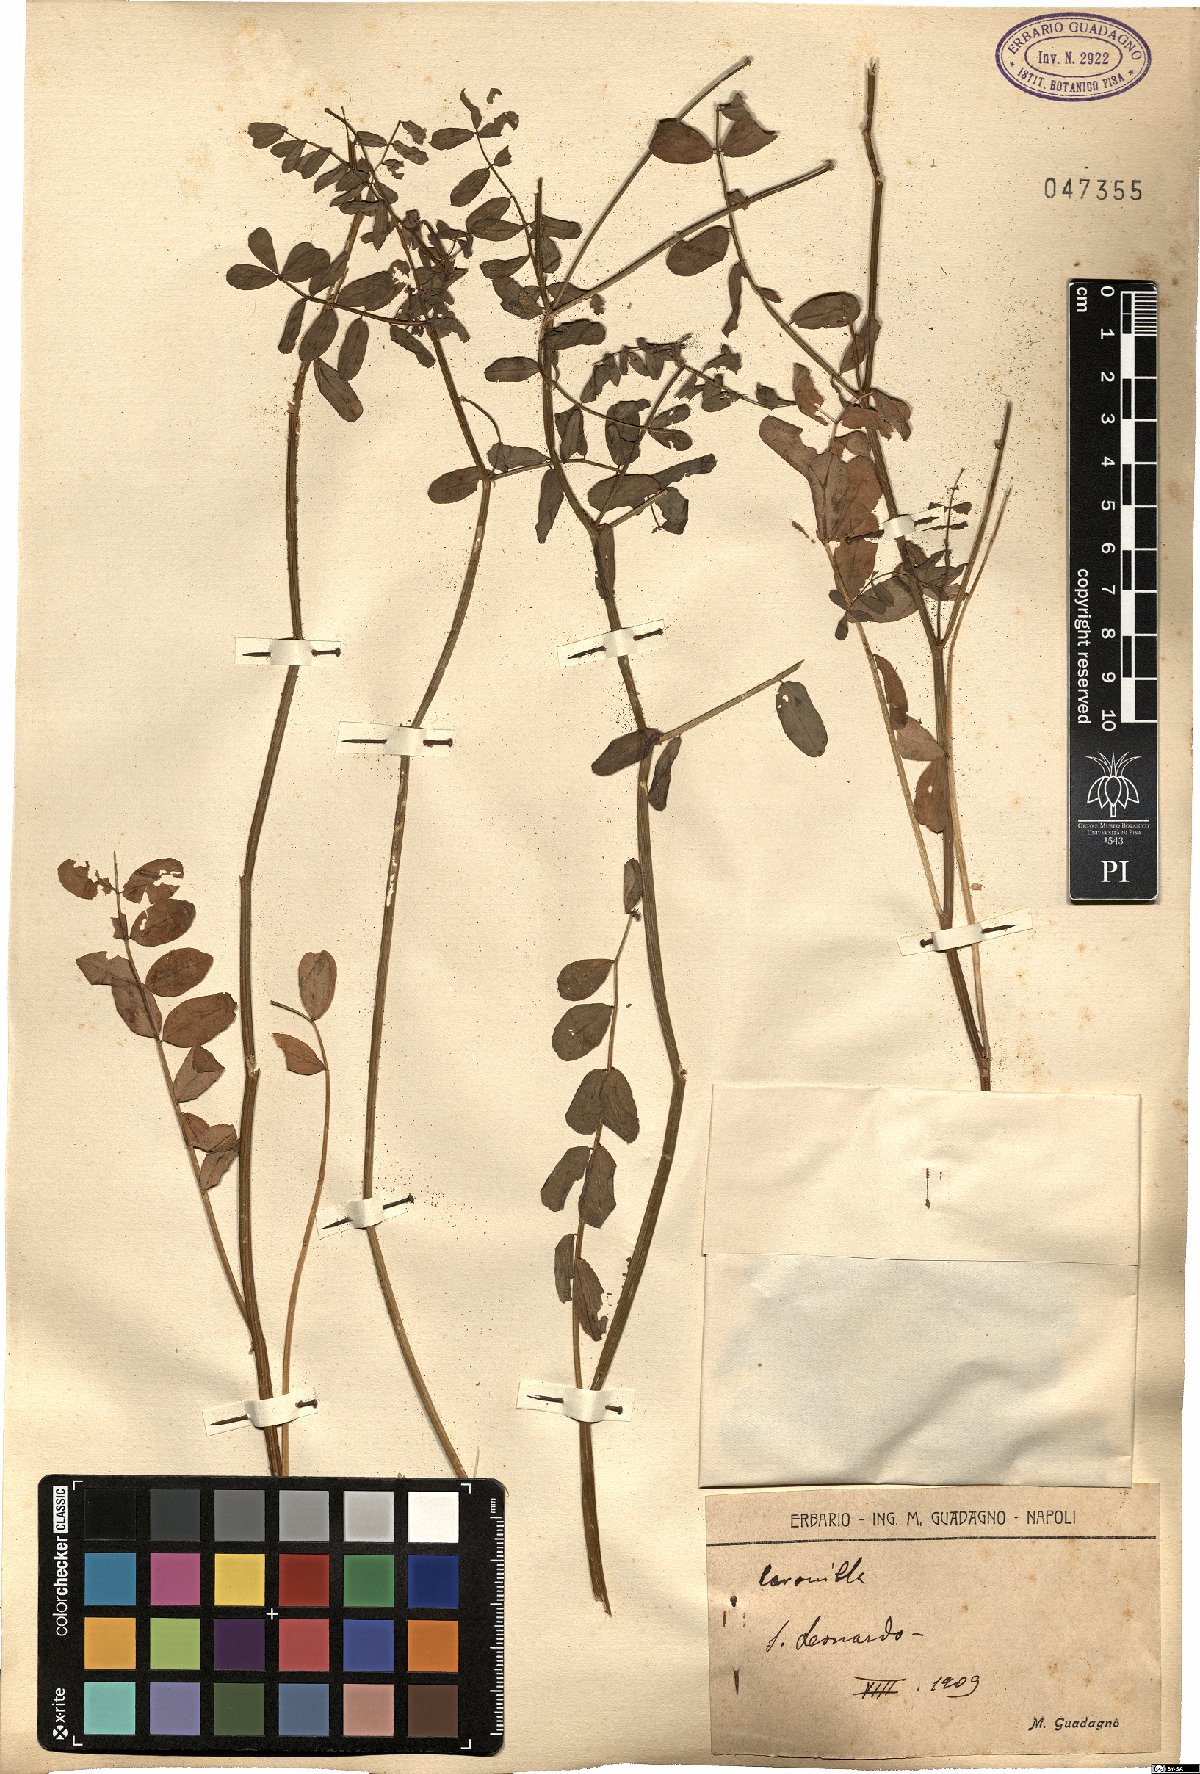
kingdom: Plantae
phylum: Tracheophyta
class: Magnoliopsida
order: Fabales
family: Fabaceae
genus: Coronilla
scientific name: Coronilla
